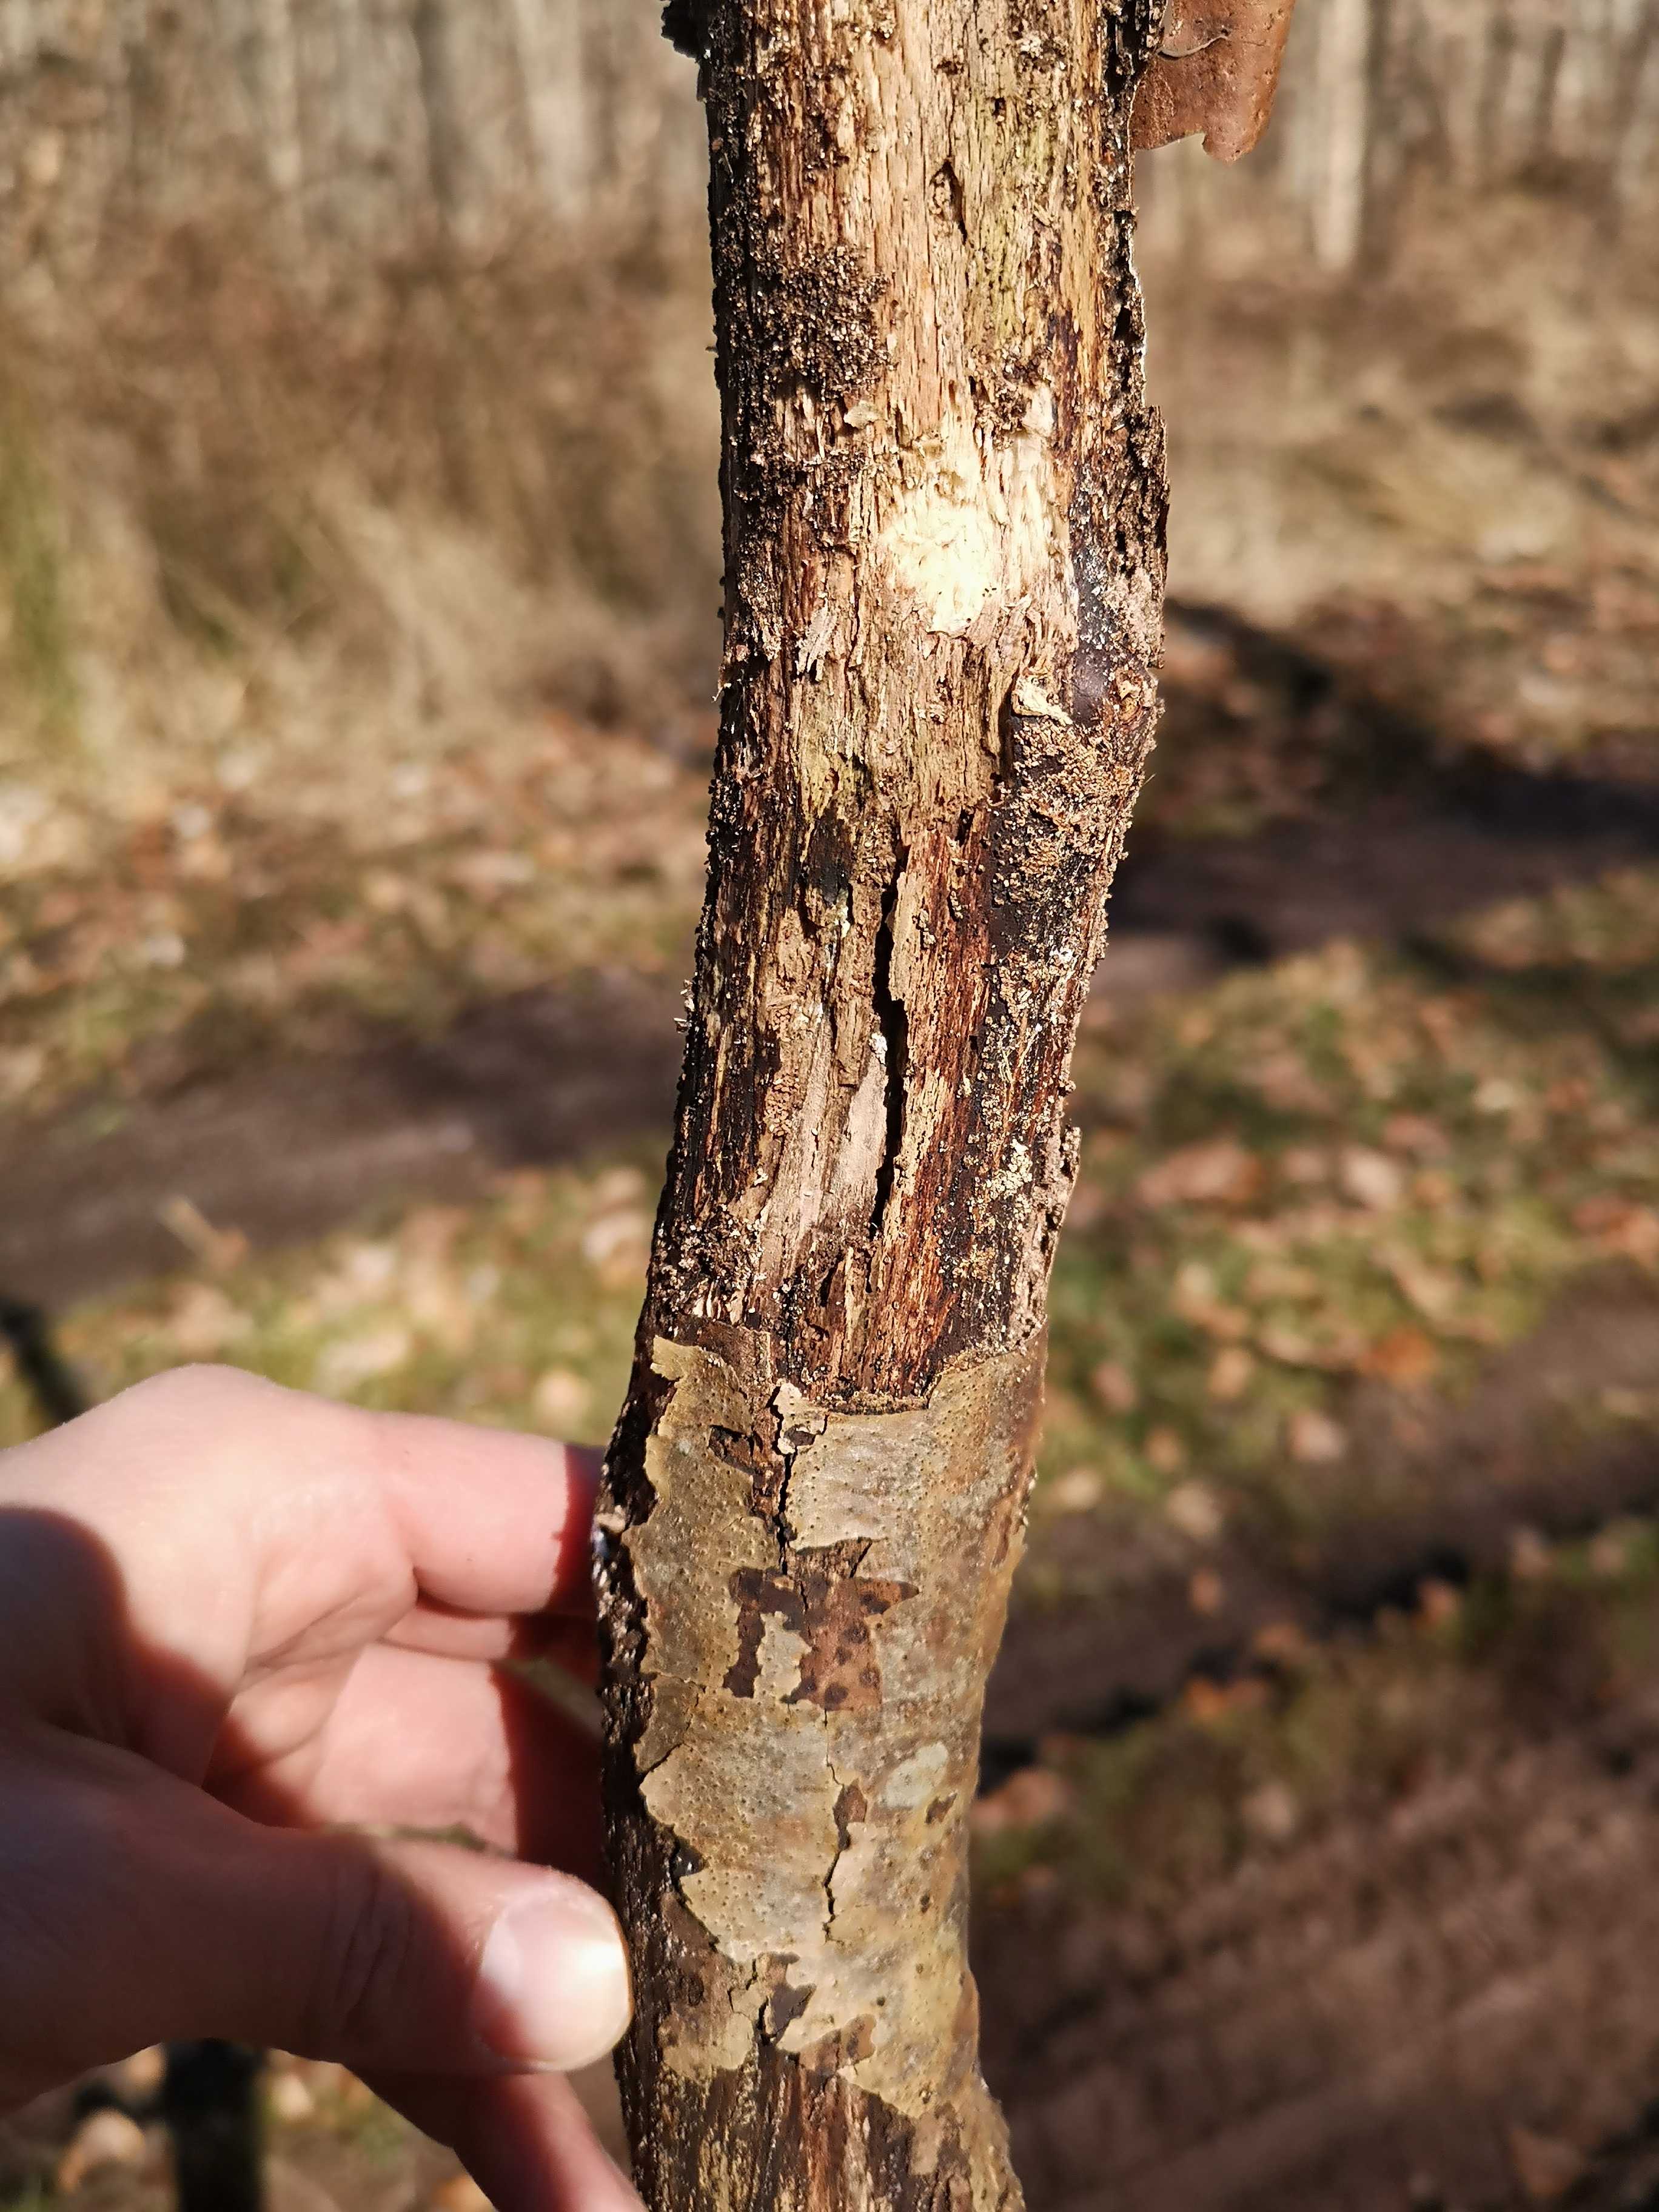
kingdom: Fungi
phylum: Ascomycota
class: Sordariomycetes
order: Xylariales
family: Hypoxylaceae
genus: Hypoxylon
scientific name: Hypoxylon
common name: kulbær
